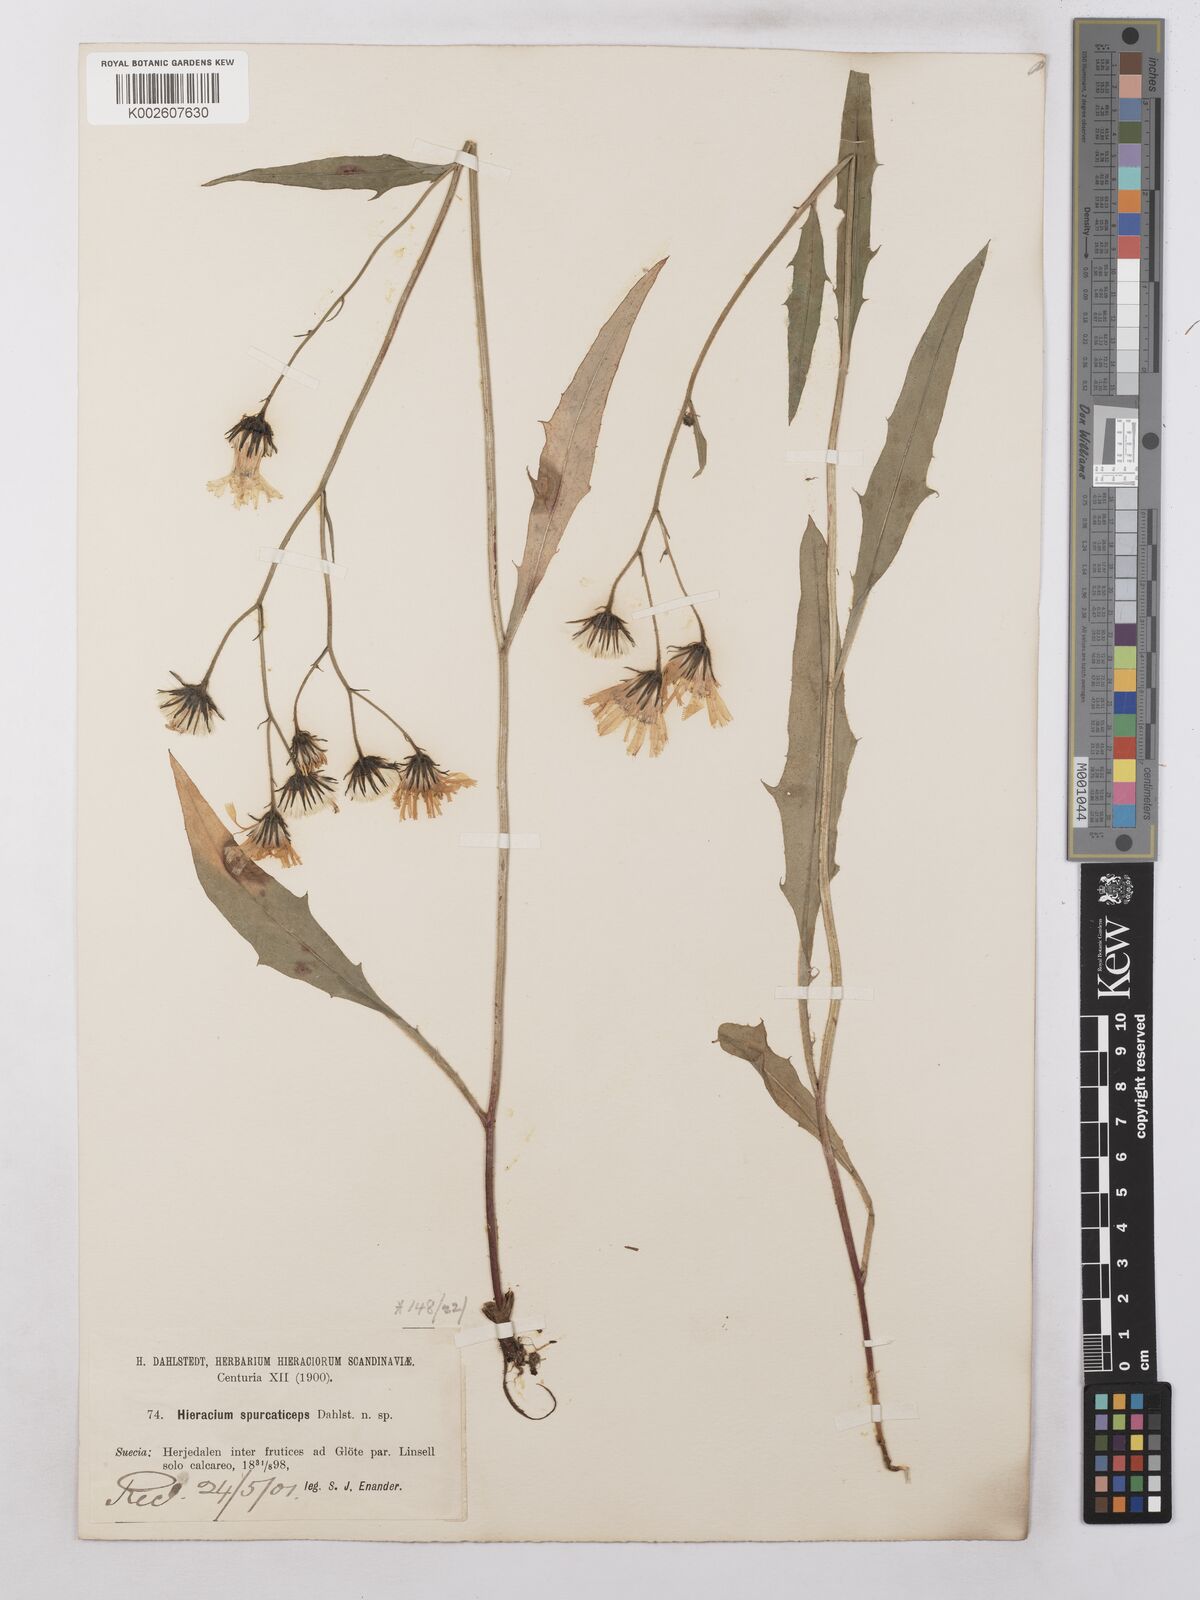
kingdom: Plantae
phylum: Tracheophyta
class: Magnoliopsida
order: Asterales
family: Asteraceae
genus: Hieracium
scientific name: Hieracium subramosum
